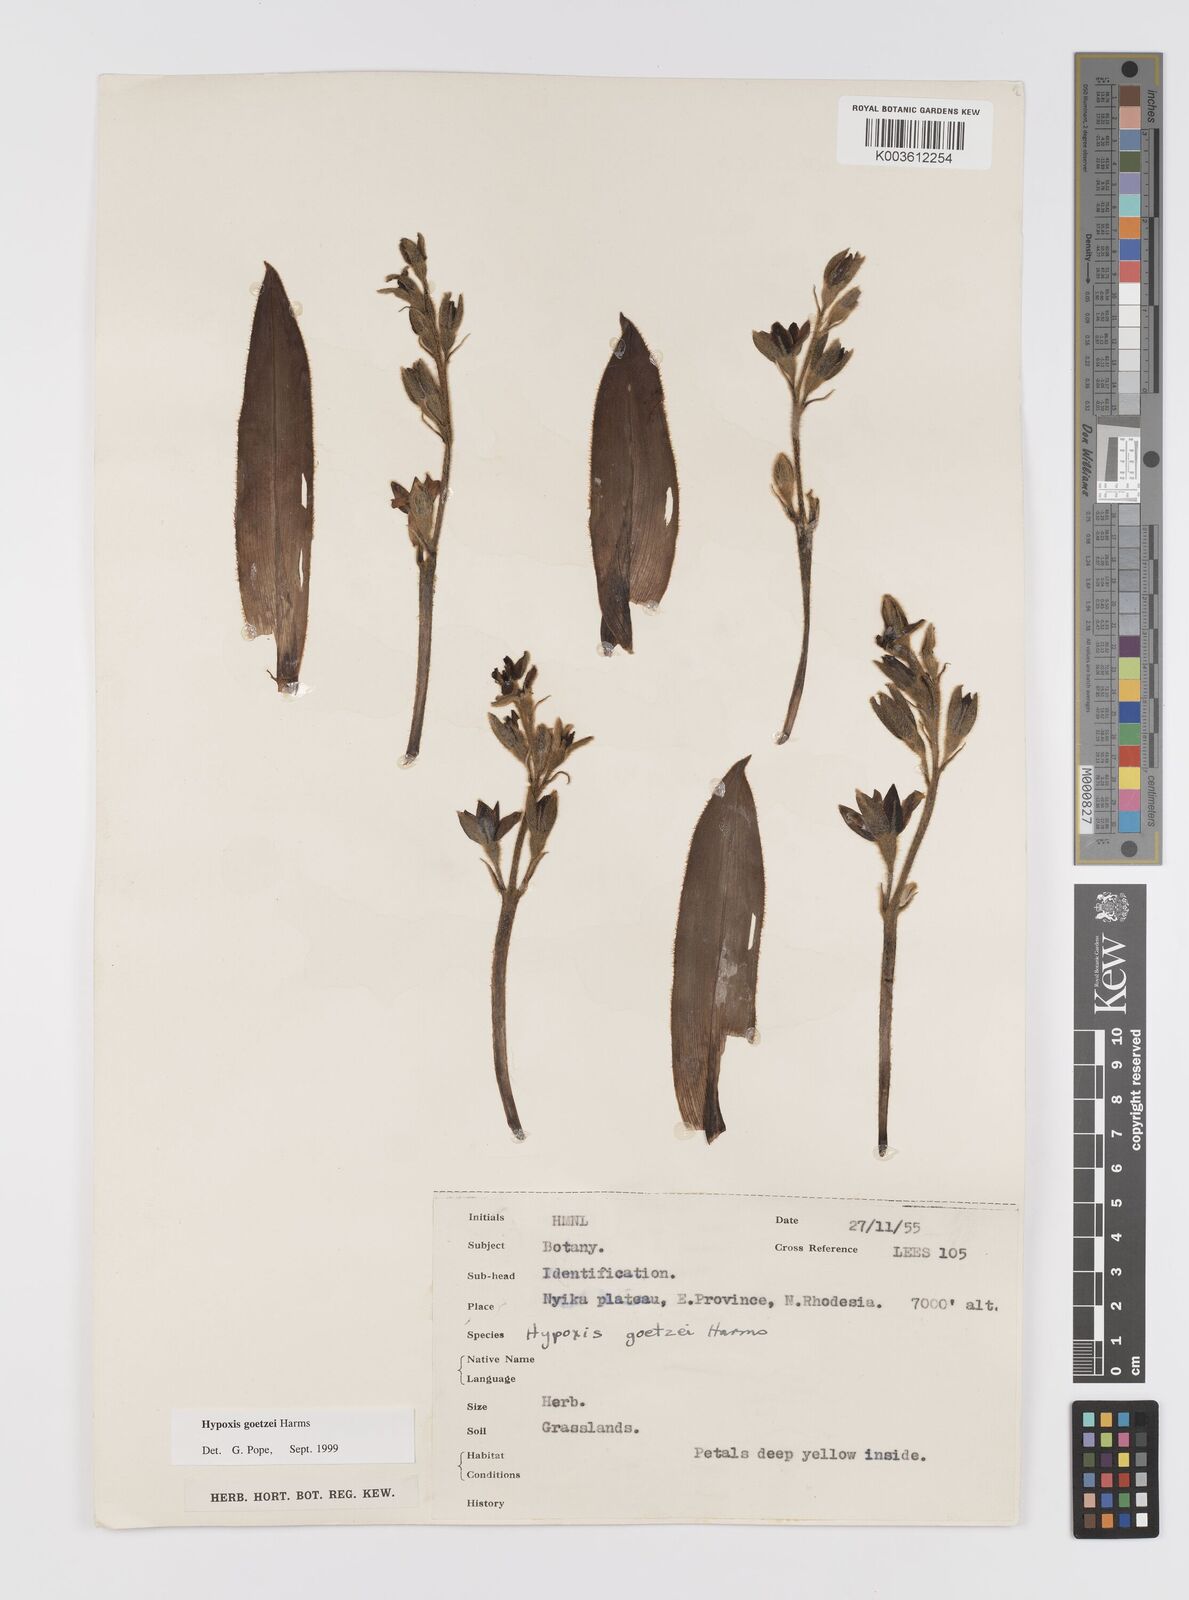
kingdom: Plantae
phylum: Tracheophyta
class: Liliopsida
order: Asparagales
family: Hypoxidaceae
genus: Hypoxis
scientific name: Hypoxis goetzei
